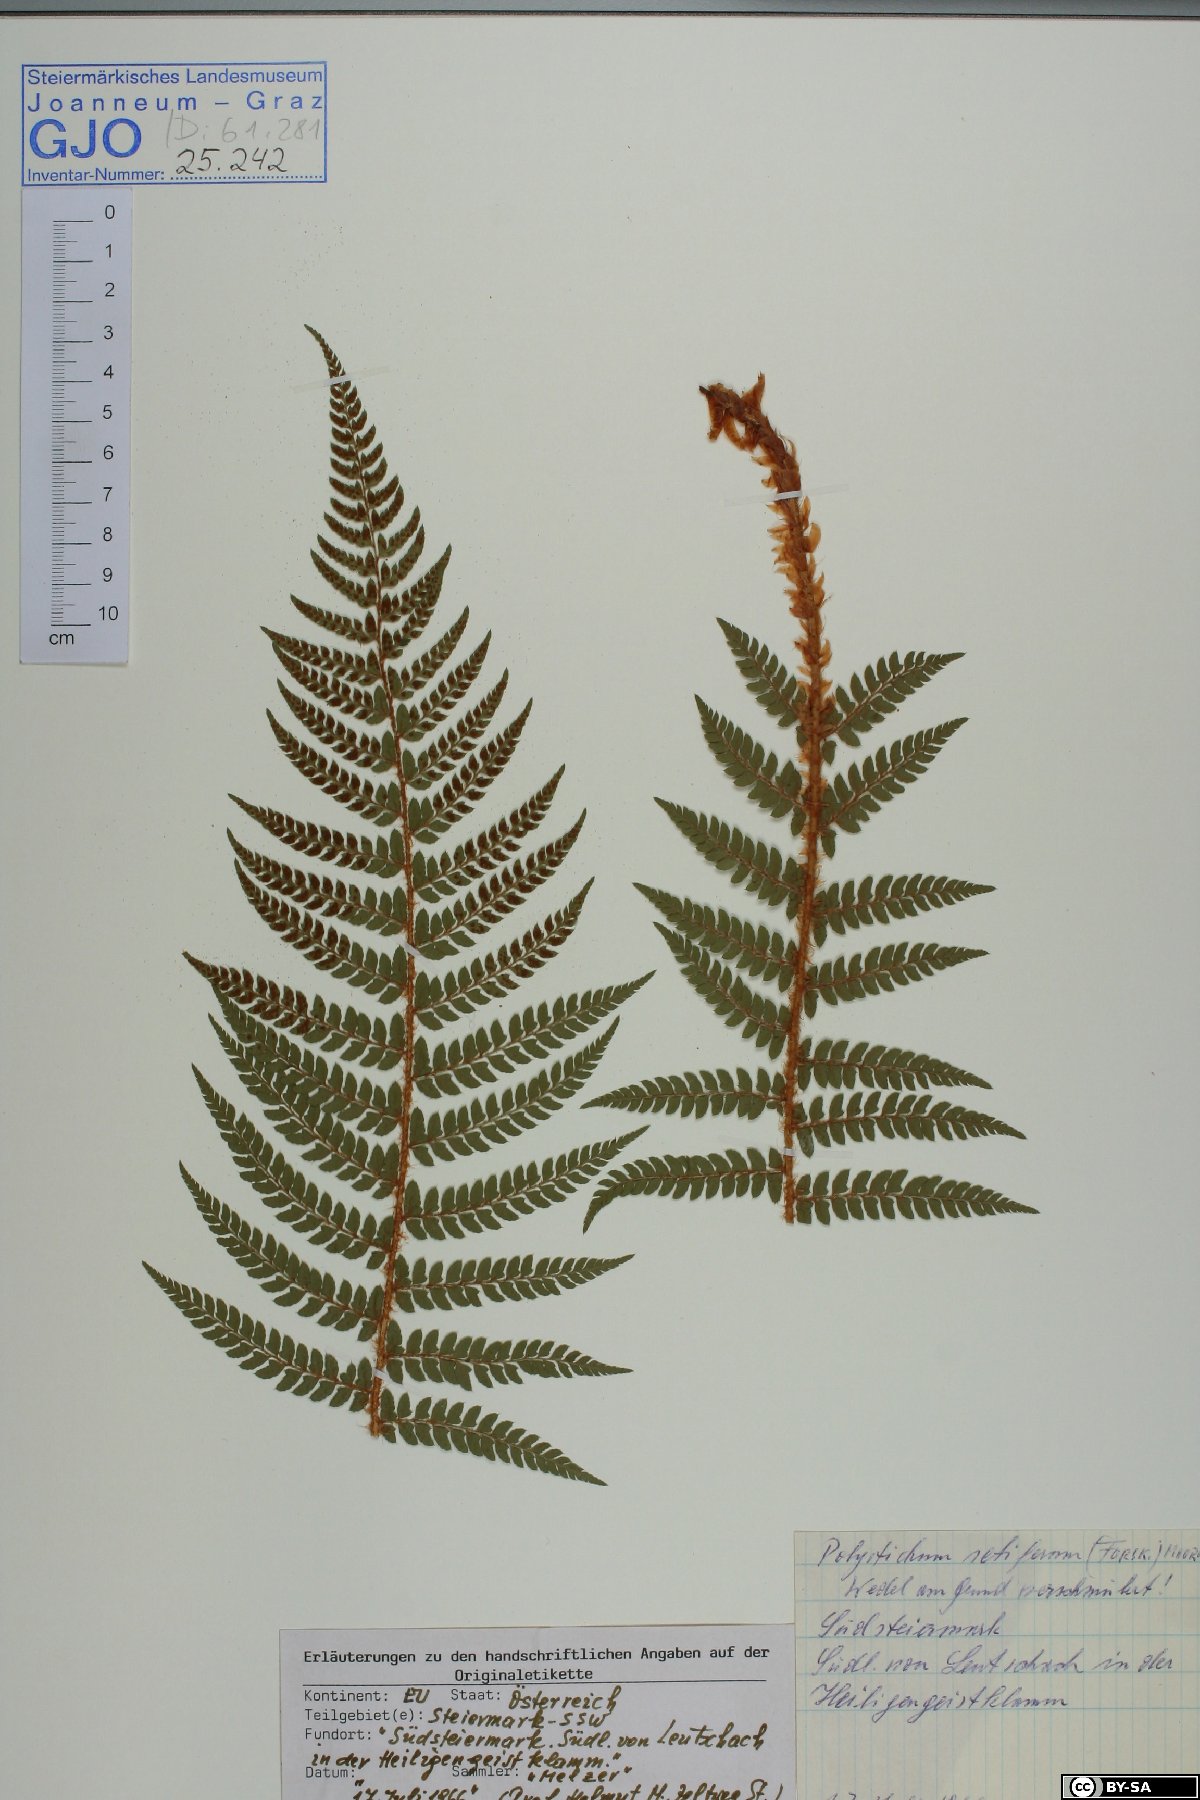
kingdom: Plantae
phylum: Tracheophyta
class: Polypodiopsida
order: Polypodiales
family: Dryopteridaceae
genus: Polystichum
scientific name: Polystichum setiferum
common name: Soft shield-fern
